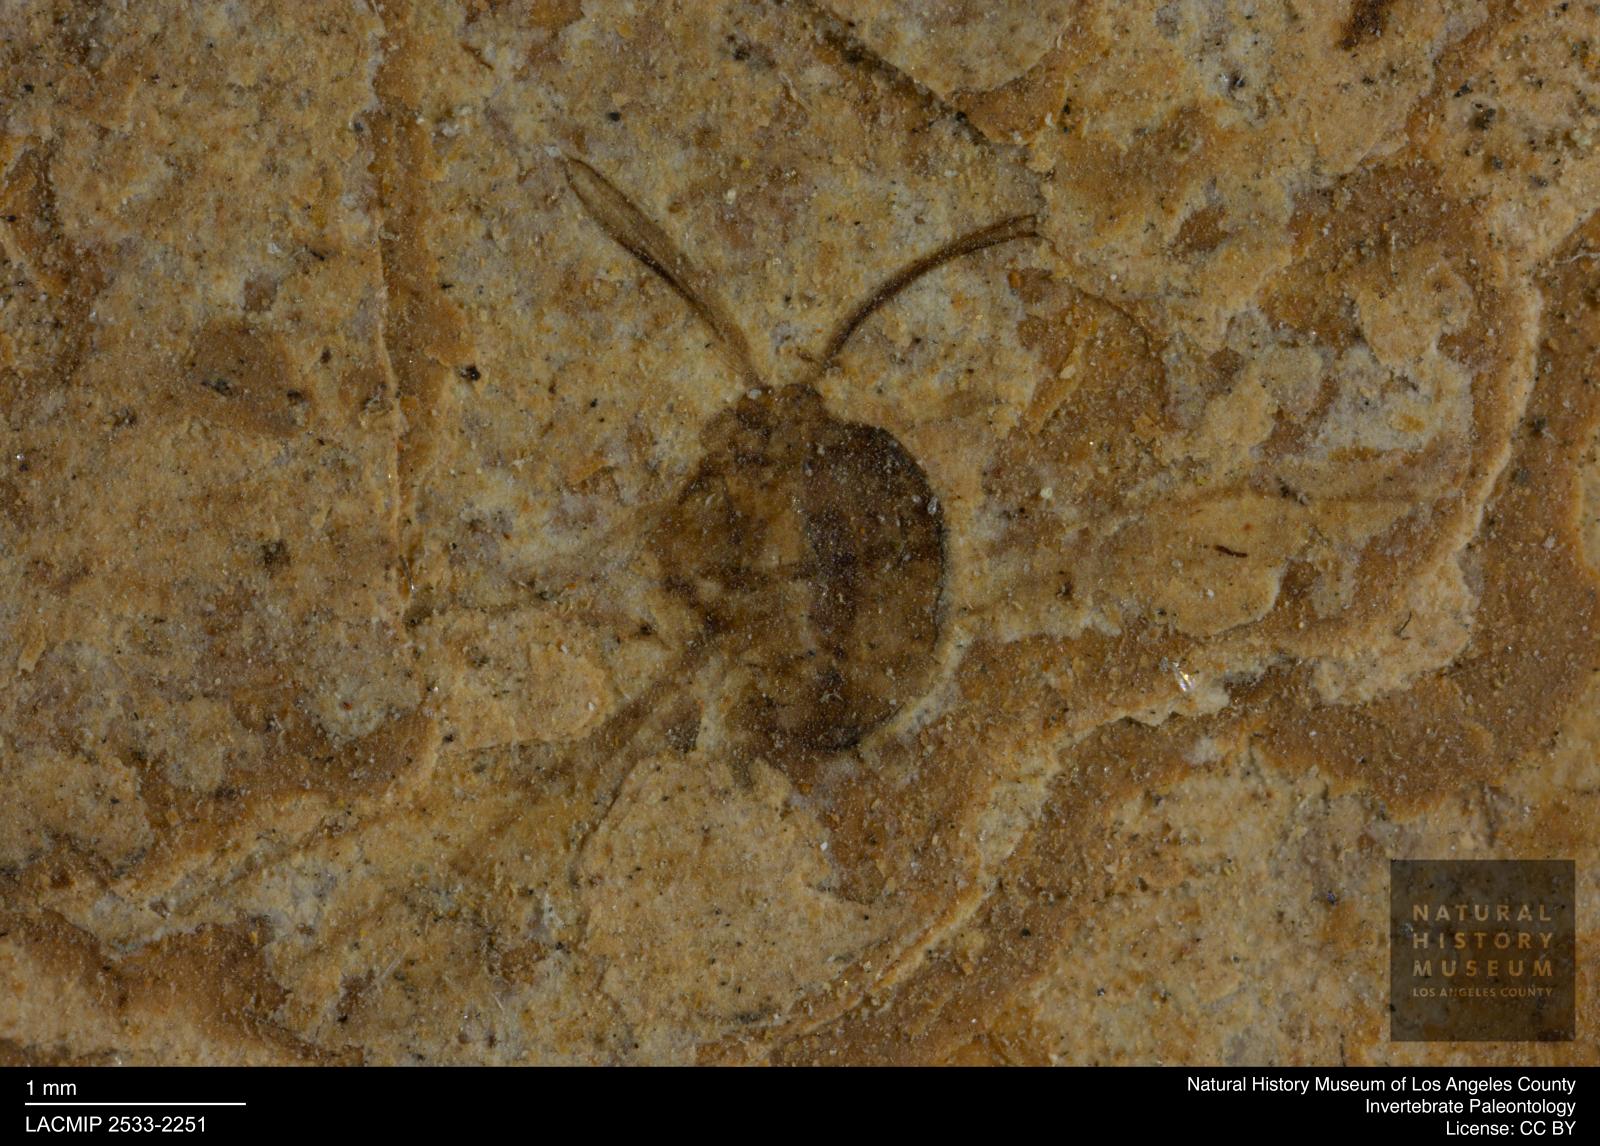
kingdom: Animalia
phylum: Arthropoda
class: Insecta
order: Diptera
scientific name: Diptera
